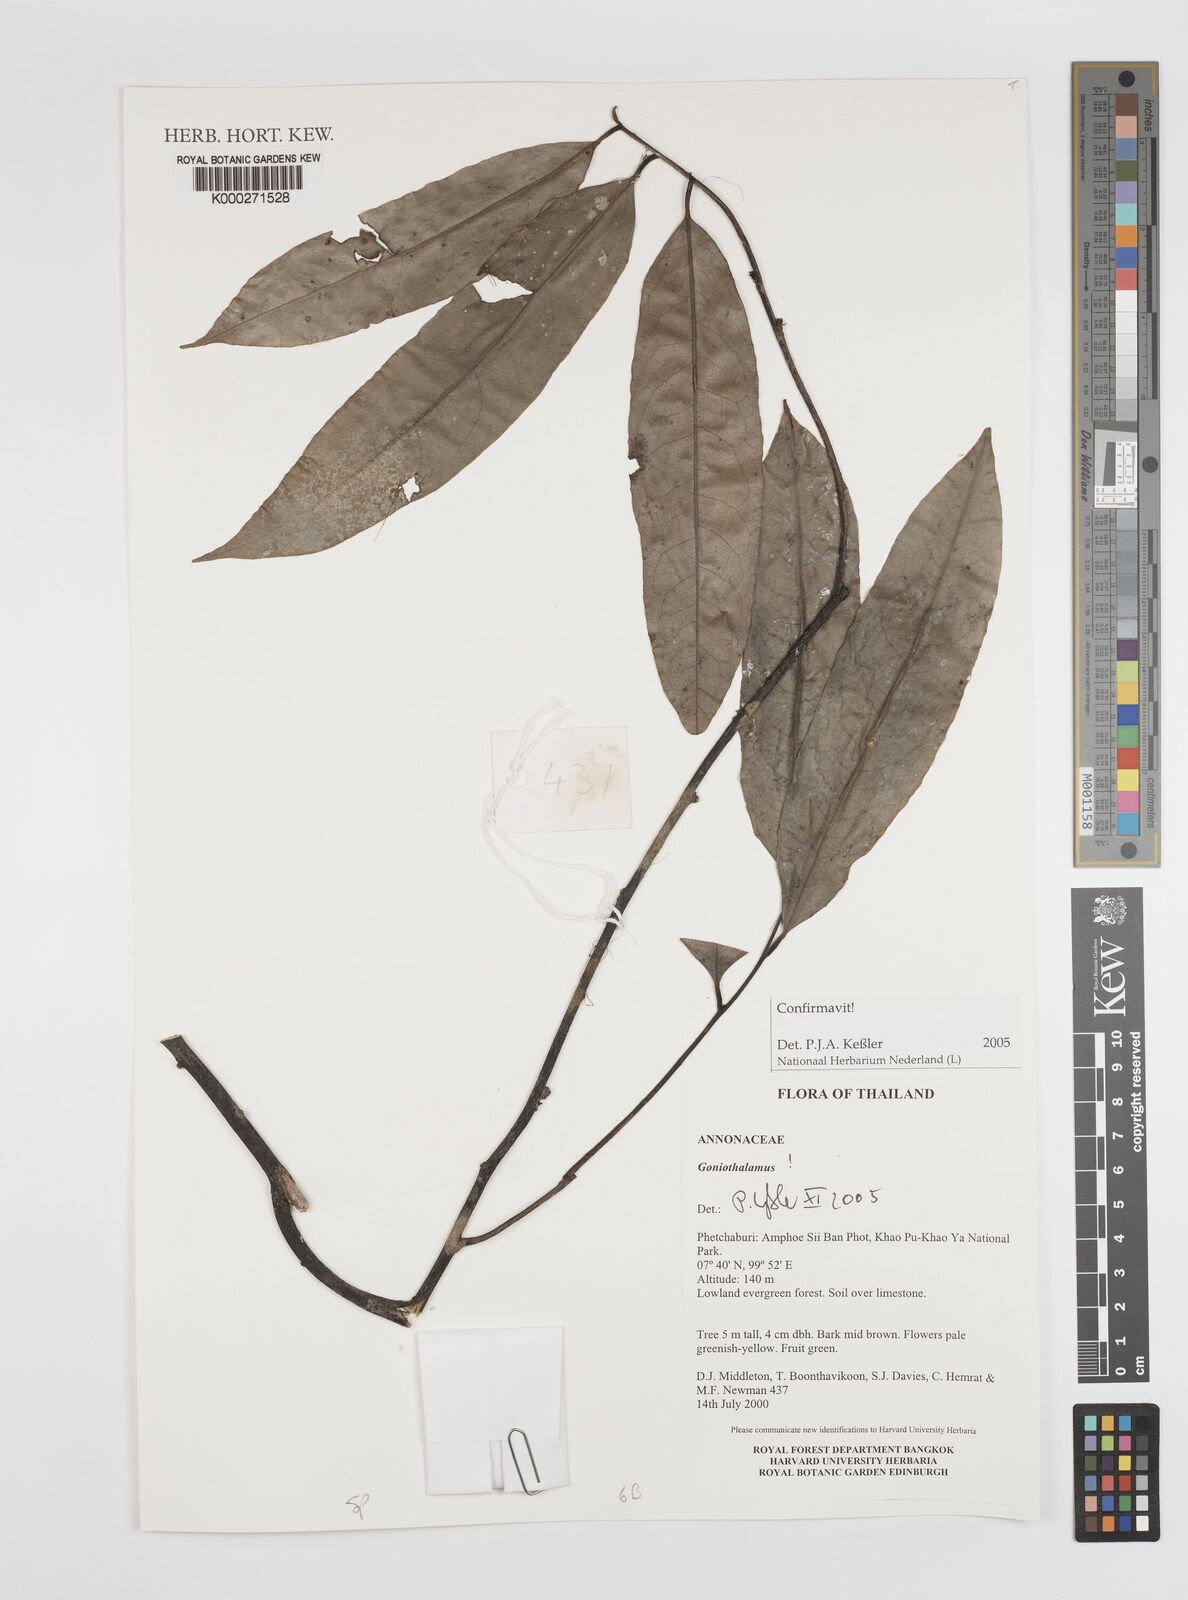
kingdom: Plantae
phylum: Tracheophyta
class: Magnoliopsida
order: Magnoliales
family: Annonaceae
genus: Goniothalamus
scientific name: Goniothalamus
